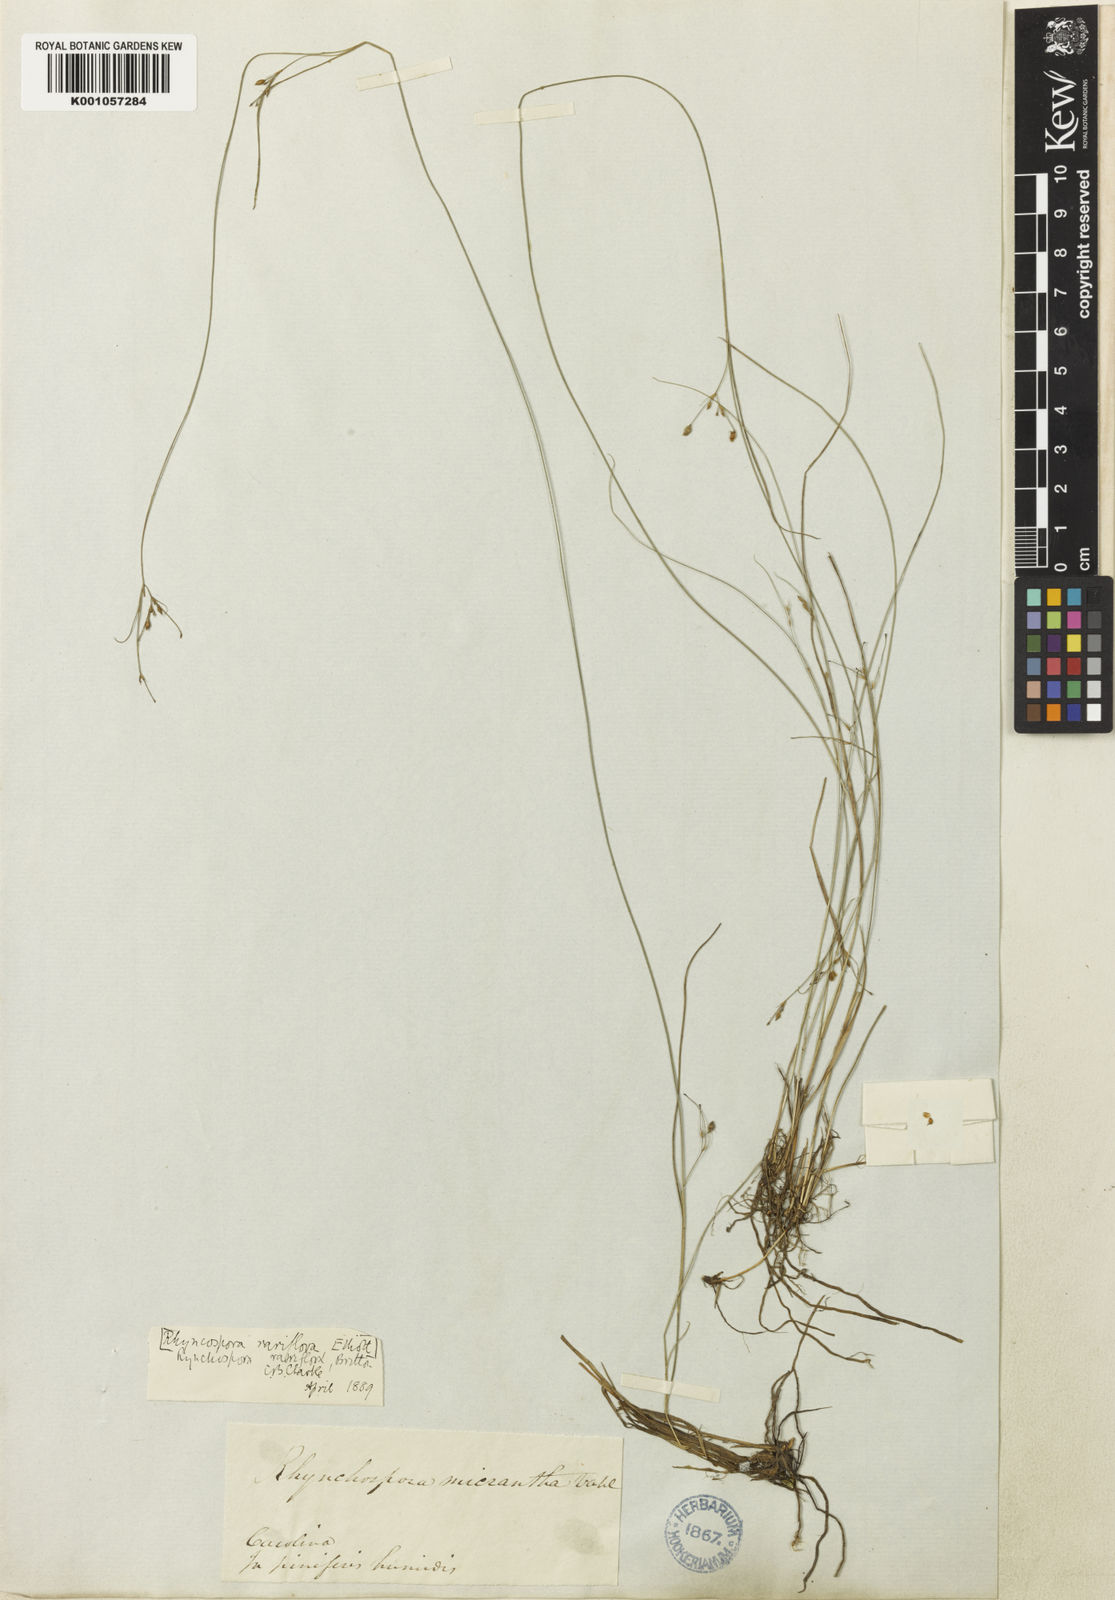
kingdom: Plantae
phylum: Tracheophyta
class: Liliopsida
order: Poales
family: Cyperaceae
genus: Rhynchospora
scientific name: Rhynchospora rariflora
